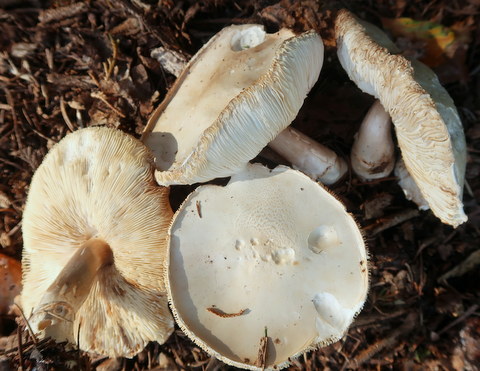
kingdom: Fungi
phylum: Basidiomycota
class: Agaricomycetes
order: Agaricales
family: Agaricaceae
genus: Leucoagaricus
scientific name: Leucoagaricus leucothites
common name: rosabladet silkehat
